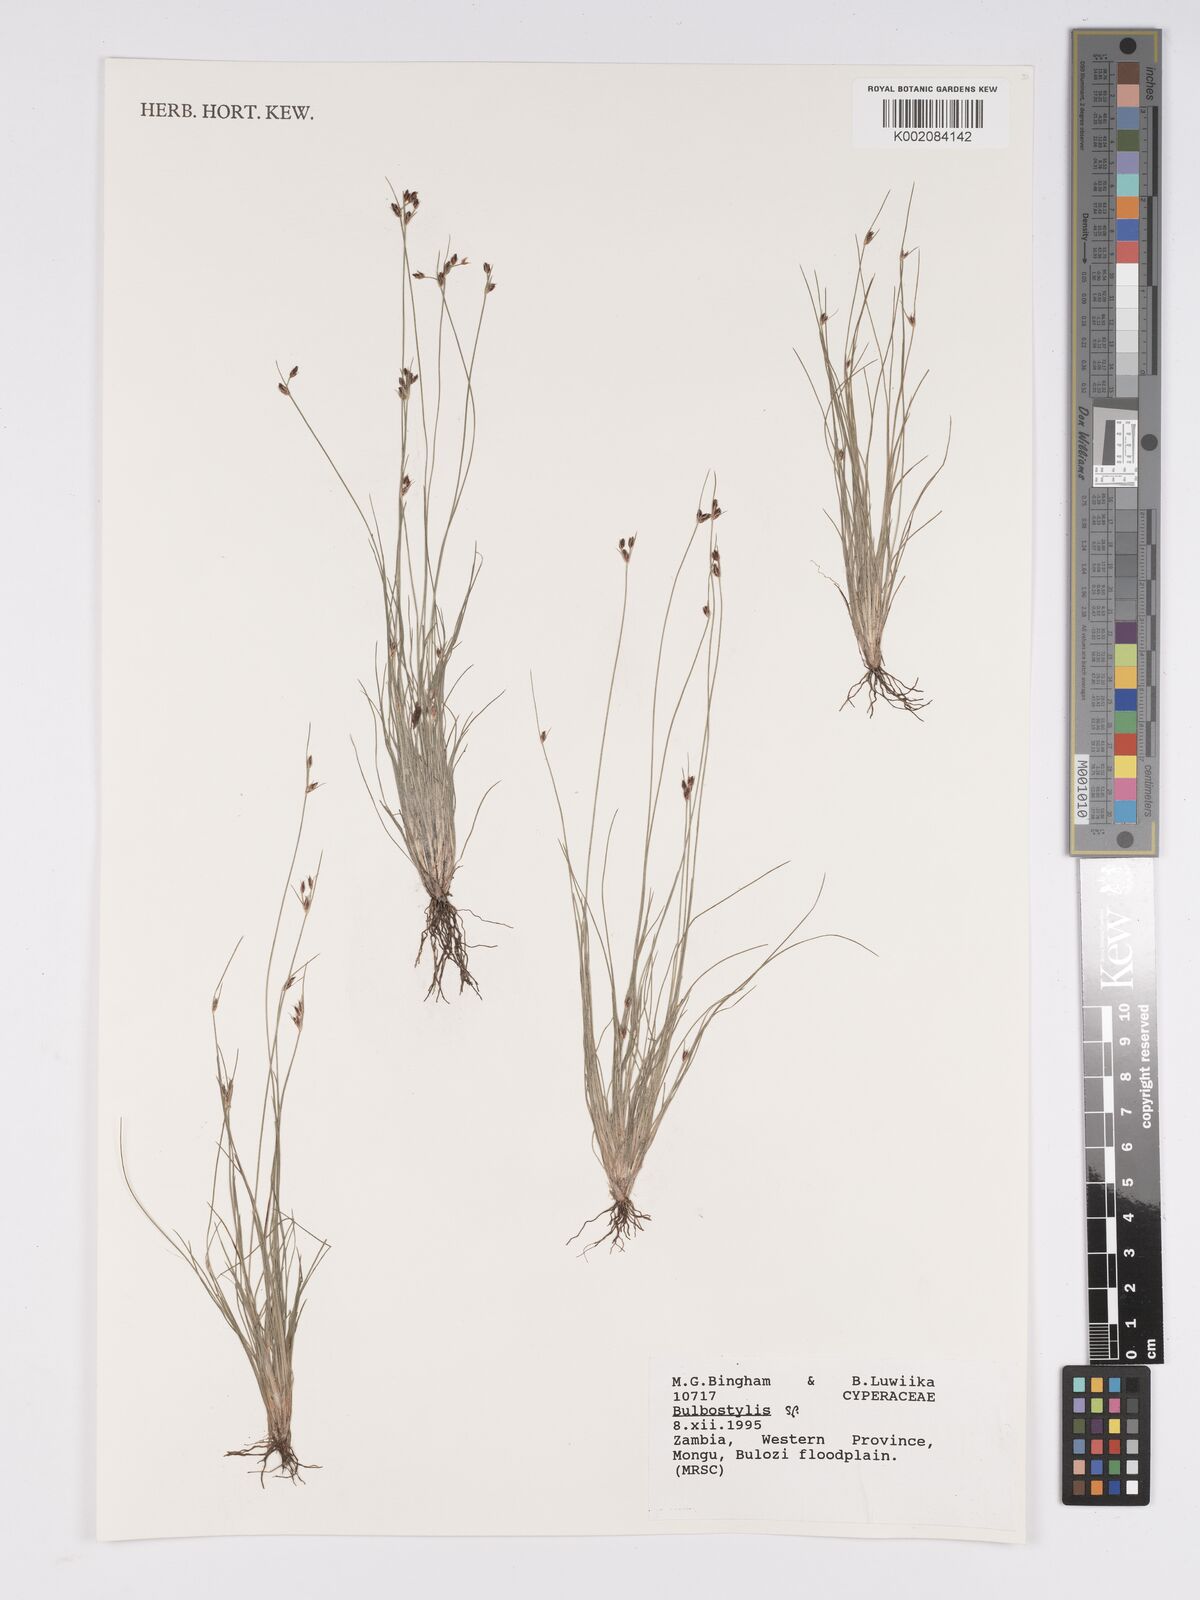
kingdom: Plantae
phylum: Tracheophyta
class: Liliopsida
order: Poales
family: Cyperaceae
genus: Bulbostylis
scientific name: Bulbostylis
